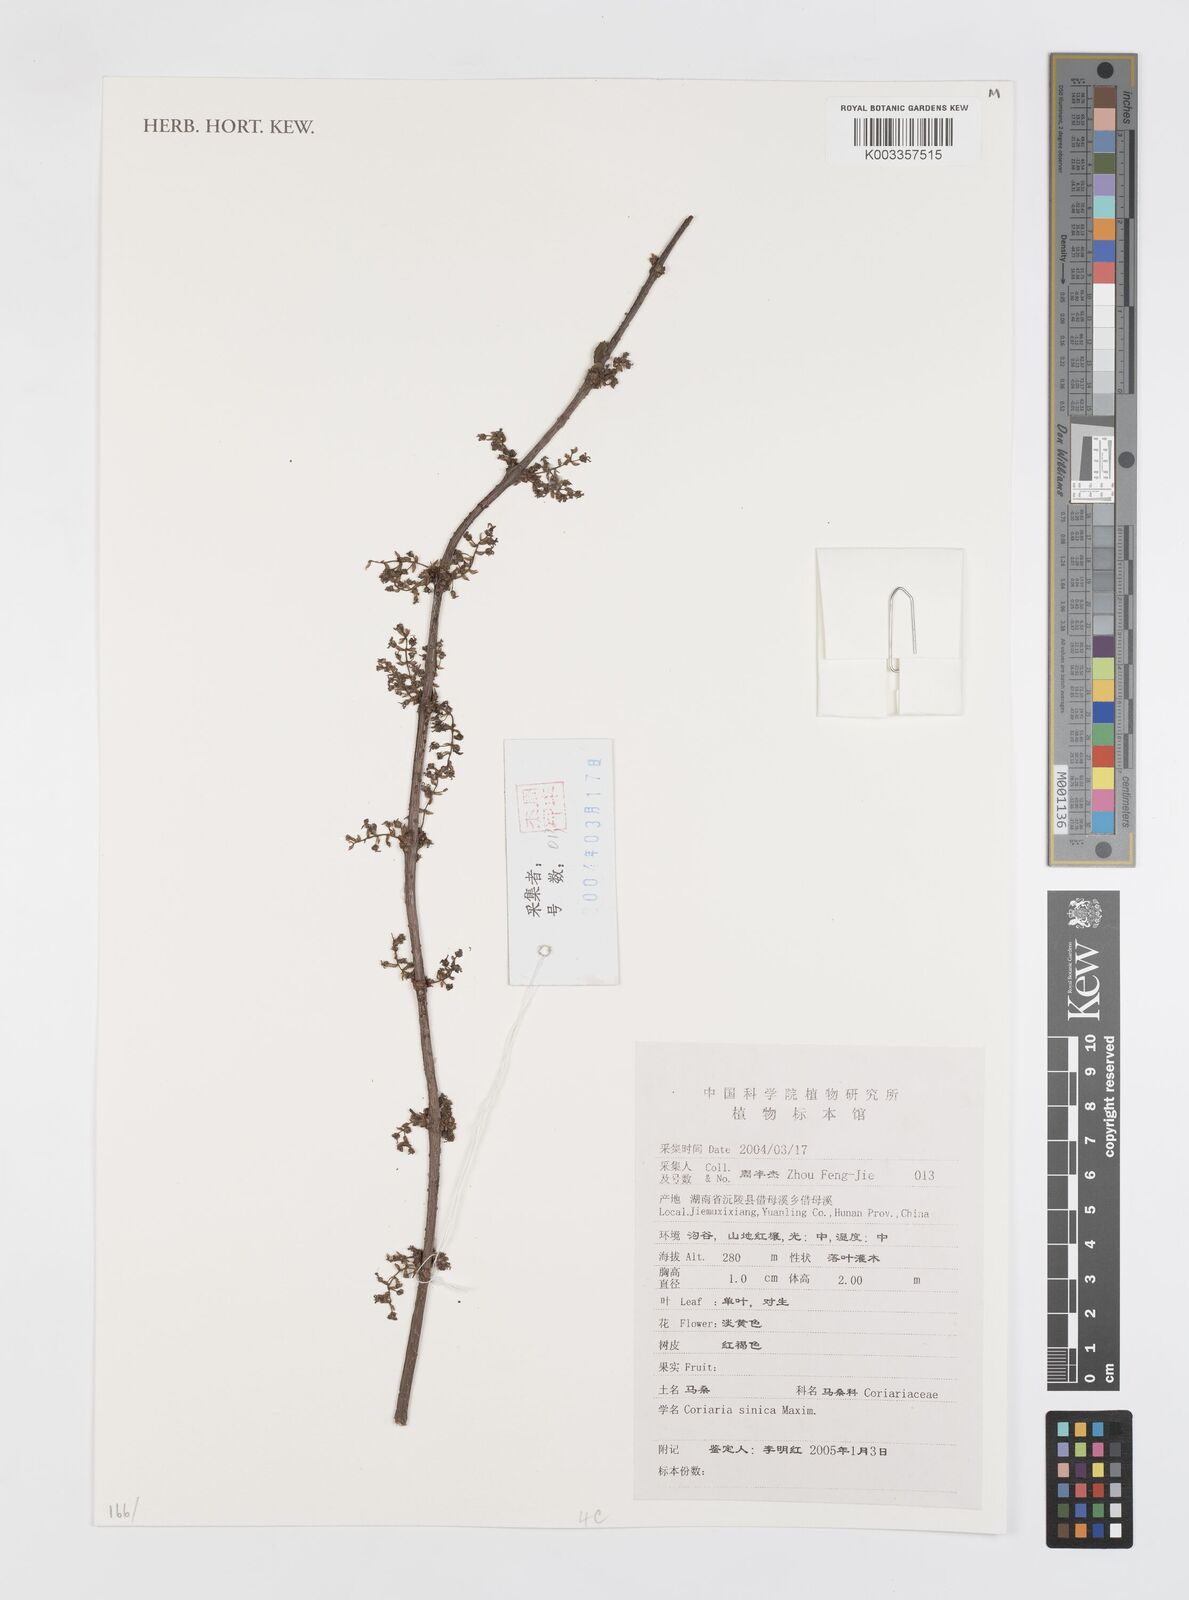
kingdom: Plantae
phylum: Tracheophyta
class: Magnoliopsida
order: Cucurbitales
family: Coriariaceae
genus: Coriaria
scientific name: Coriaria napalensis
